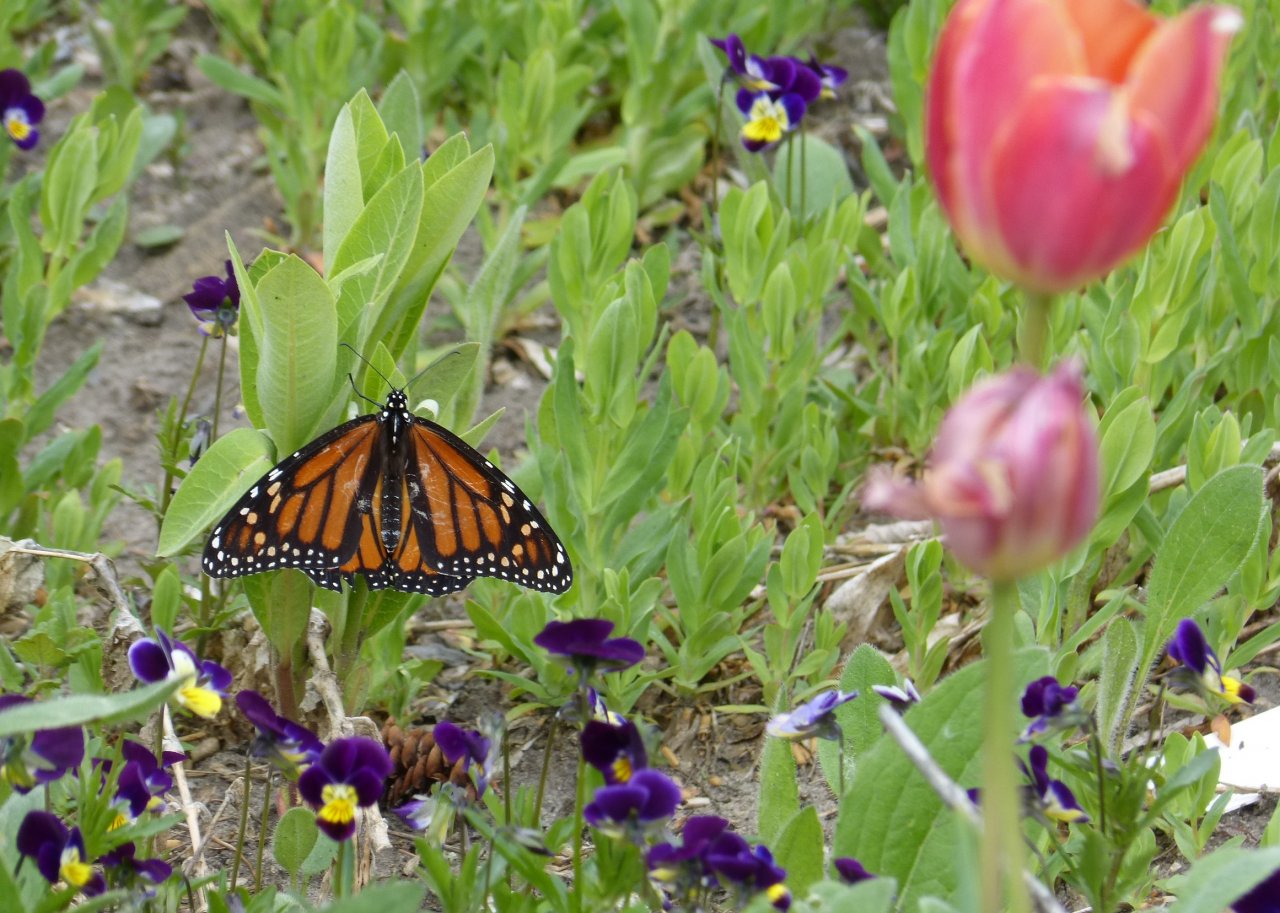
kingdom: Animalia
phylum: Arthropoda
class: Insecta
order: Lepidoptera
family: Nymphalidae
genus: Danaus
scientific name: Danaus plexippus
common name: Monarch
